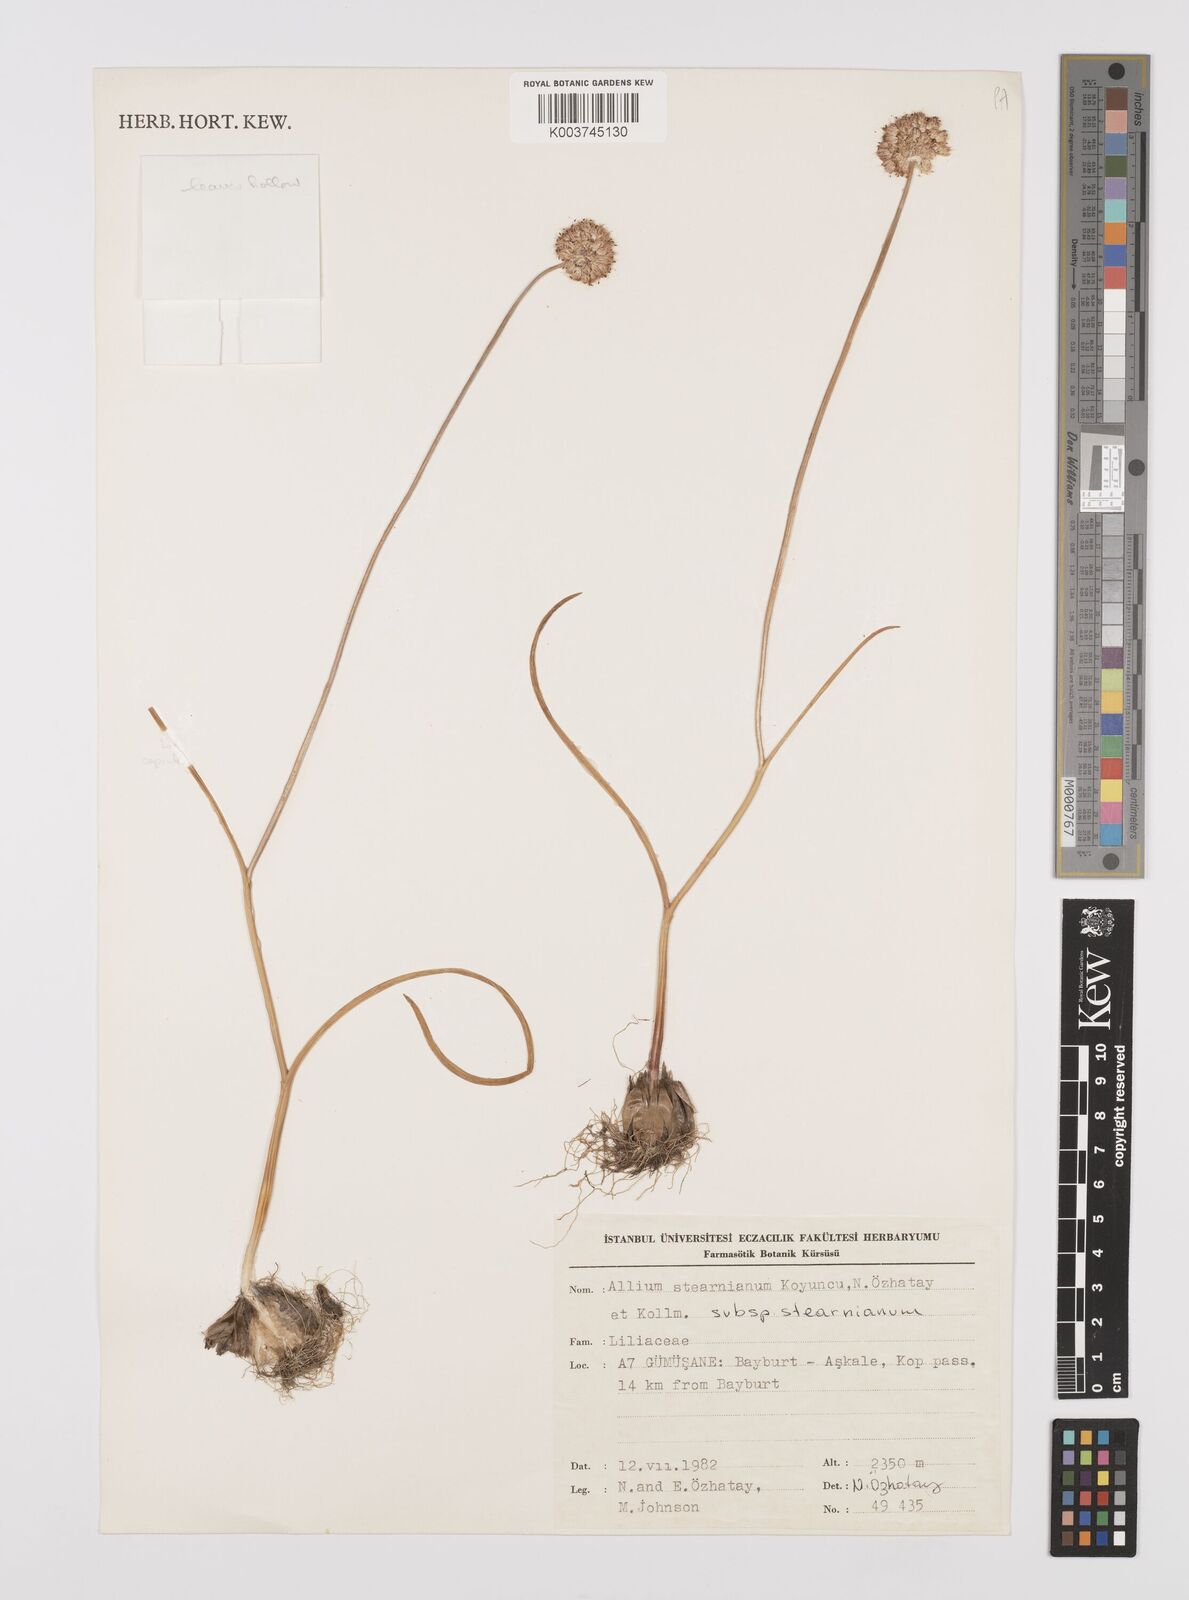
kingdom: Plantae
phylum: Tracheophyta
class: Liliopsida
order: Asparagales
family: Amaryllidaceae
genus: Allium
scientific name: Allium stearnianum
